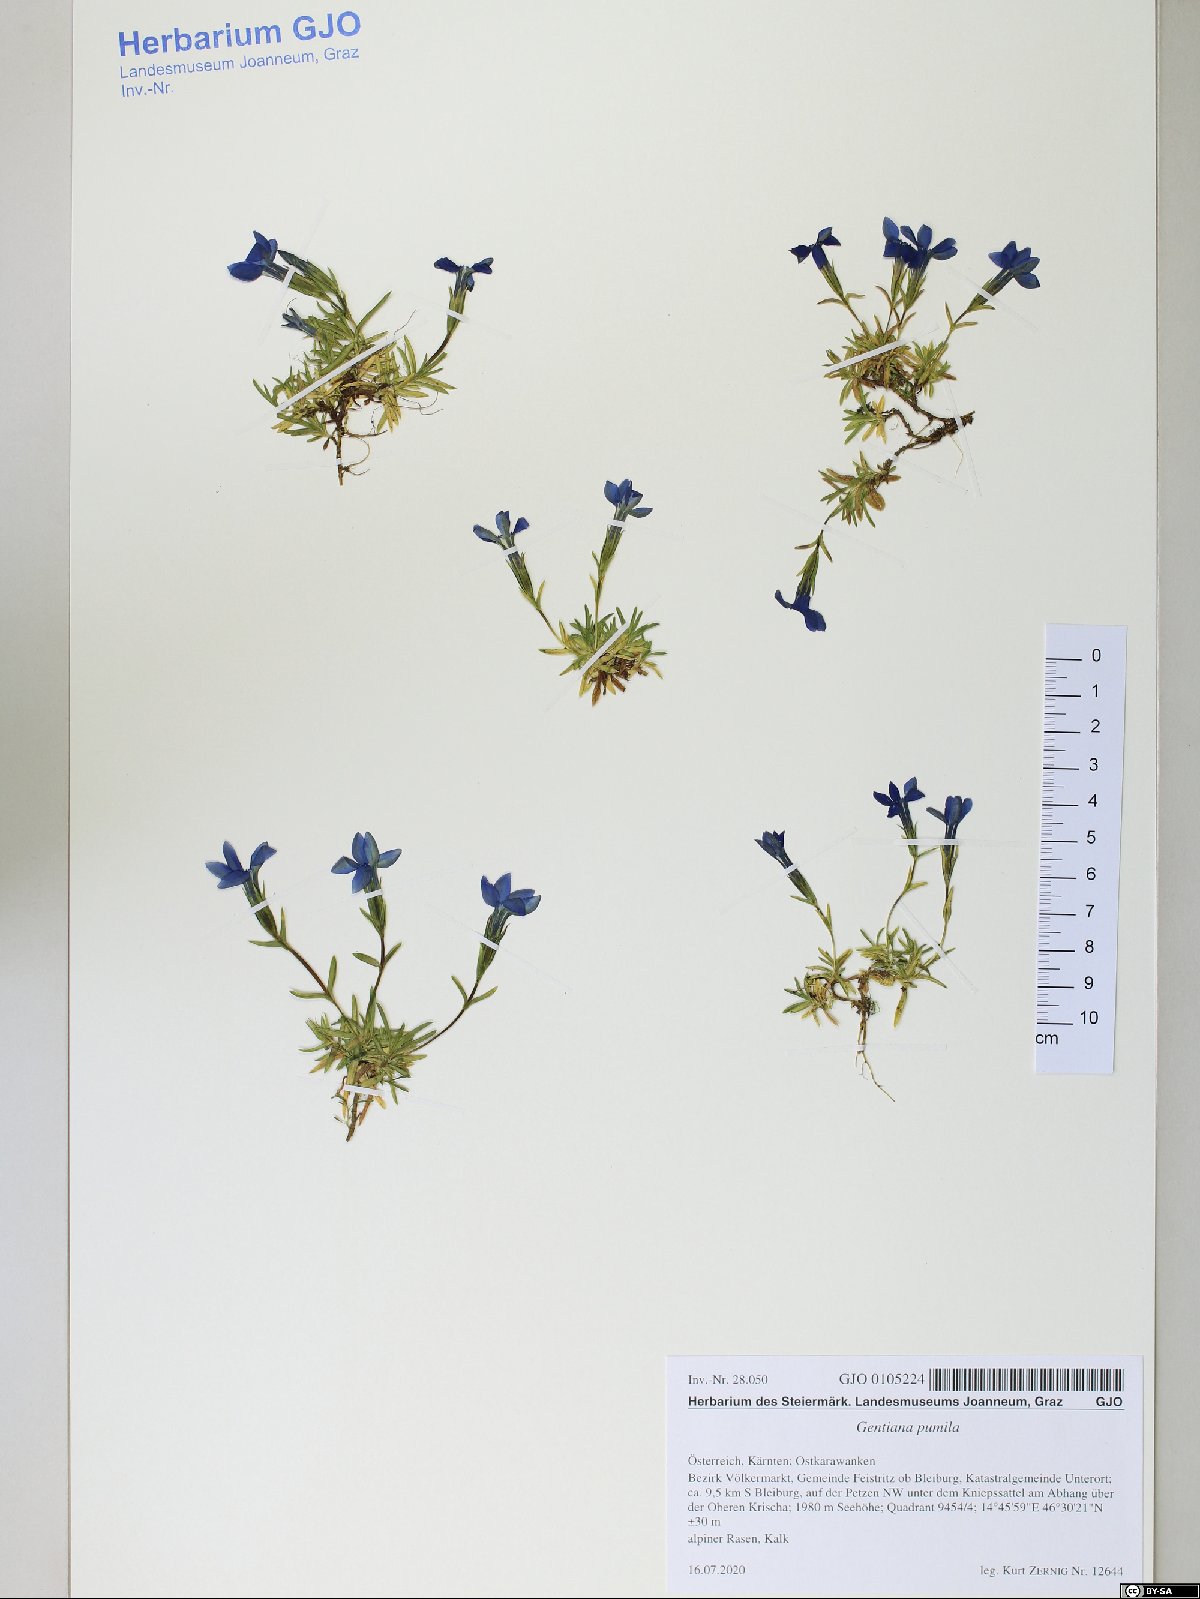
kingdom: Plantae
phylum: Tracheophyta
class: Magnoliopsida
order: Gentianales
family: Gentianaceae
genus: Gentiana
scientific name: Gentiana pumila
